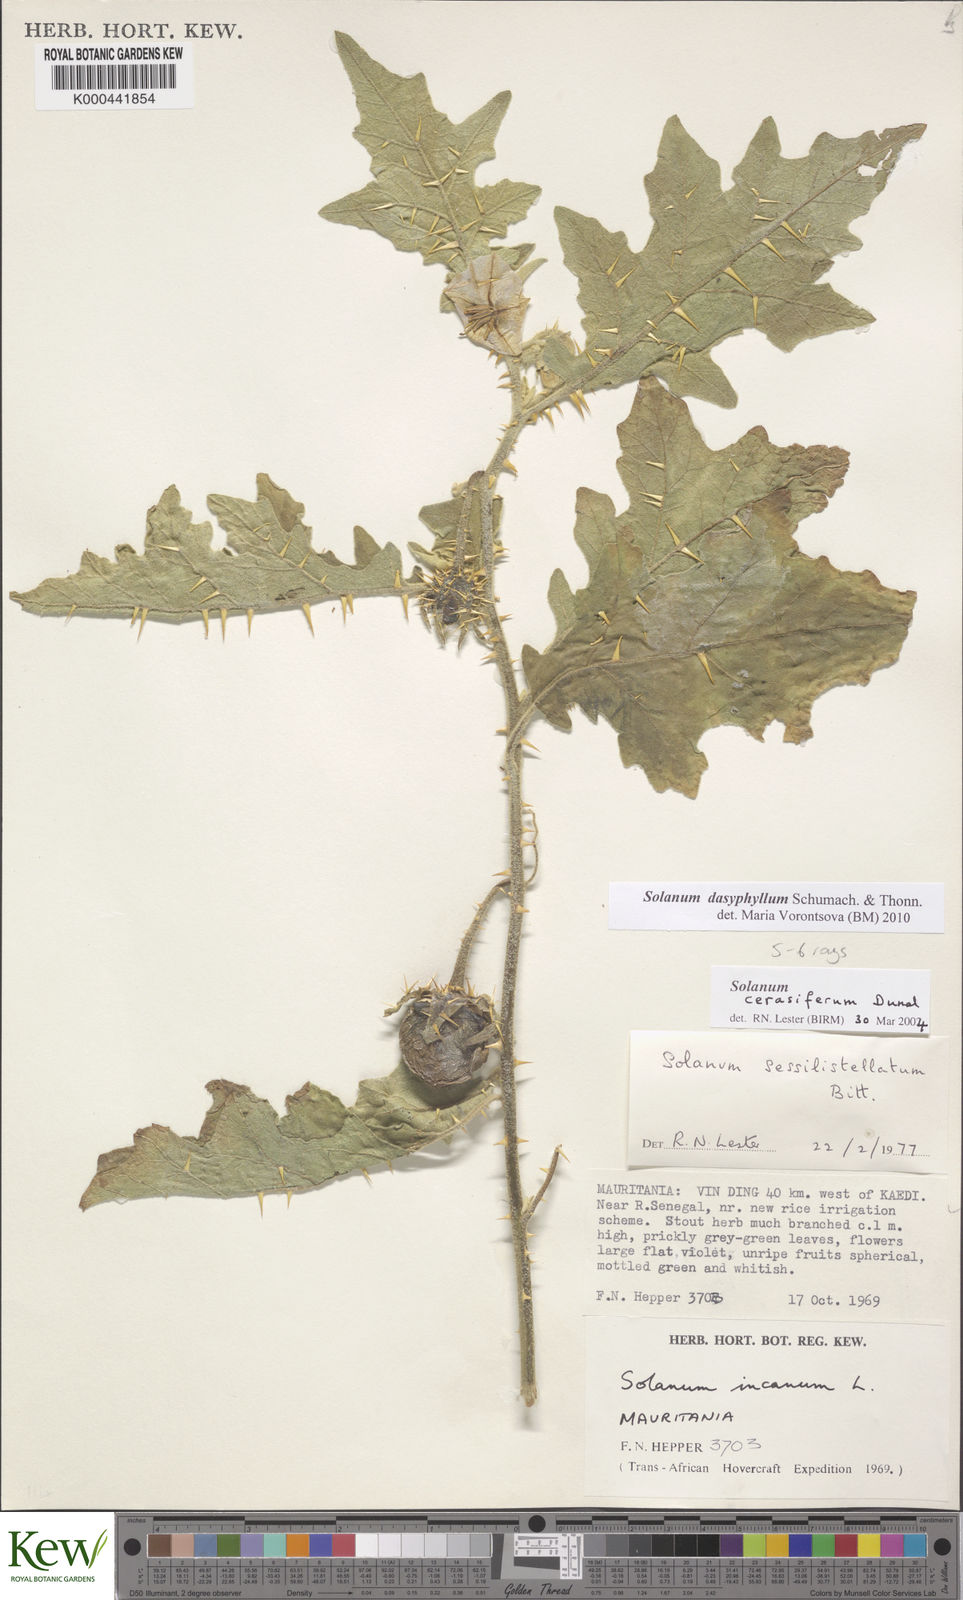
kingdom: Plantae
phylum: Tracheophyta
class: Magnoliopsida
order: Solanales
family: Solanaceae
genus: Solanum
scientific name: Solanum dasyphyllum
